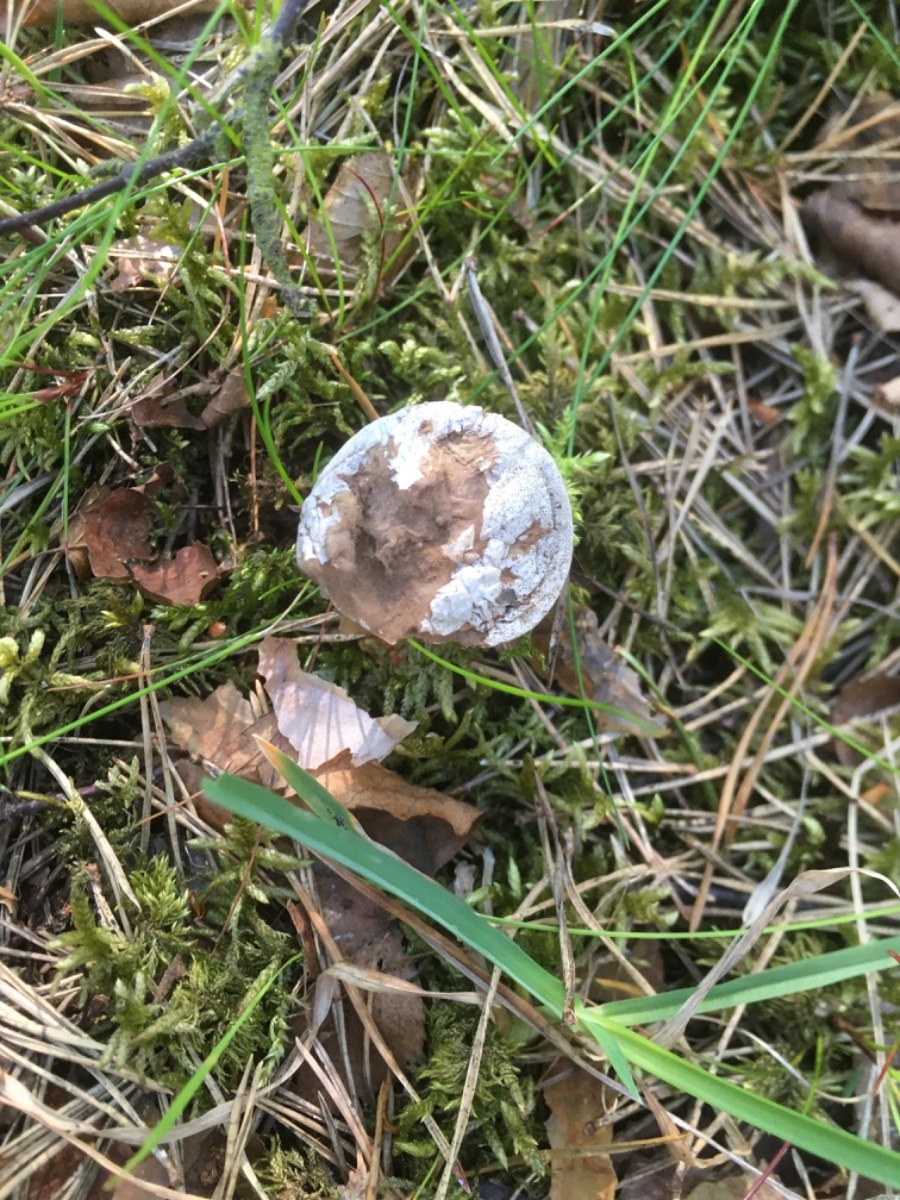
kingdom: Fungi
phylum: Basidiomycota
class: Agaricomycetes
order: Agaricales
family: Agaricaceae
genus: Lycoperdon
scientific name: Lycoperdon
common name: støvbold
